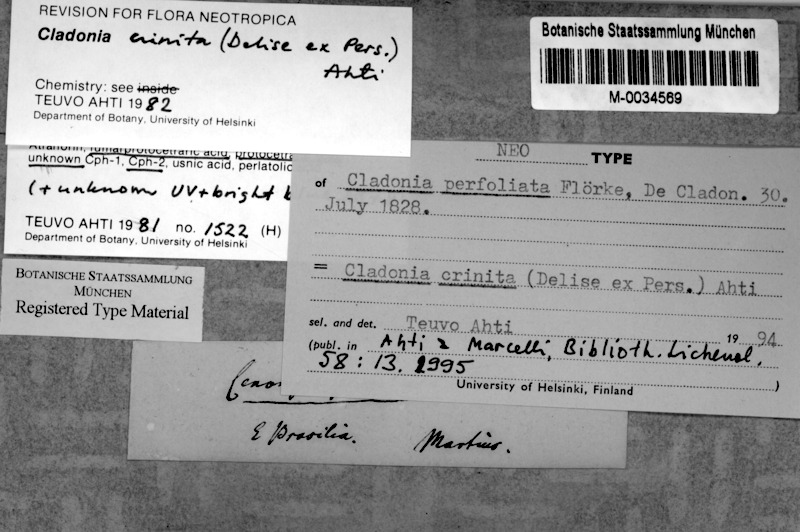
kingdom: Fungi
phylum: Ascomycota
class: Lecanoromycetes
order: Lecanorales
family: Cladoniaceae
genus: Cladonia
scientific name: Cladonia crinita
